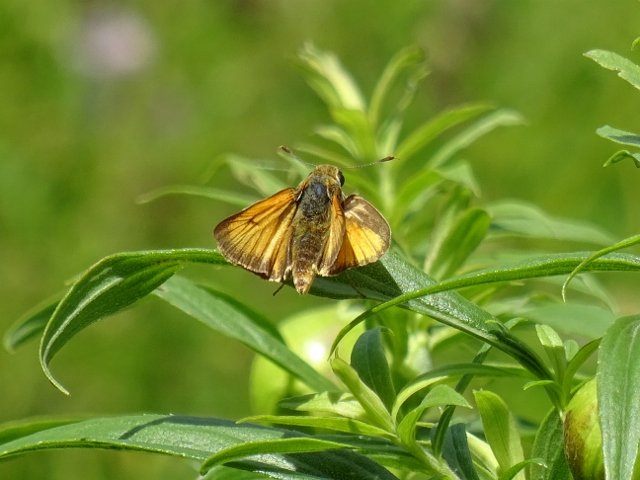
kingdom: Animalia
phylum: Arthropoda
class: Insecta
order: Lepidoptera
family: Hesperiidae
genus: Atrytone
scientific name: Atrytone delaware
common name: Delaware Skipper
